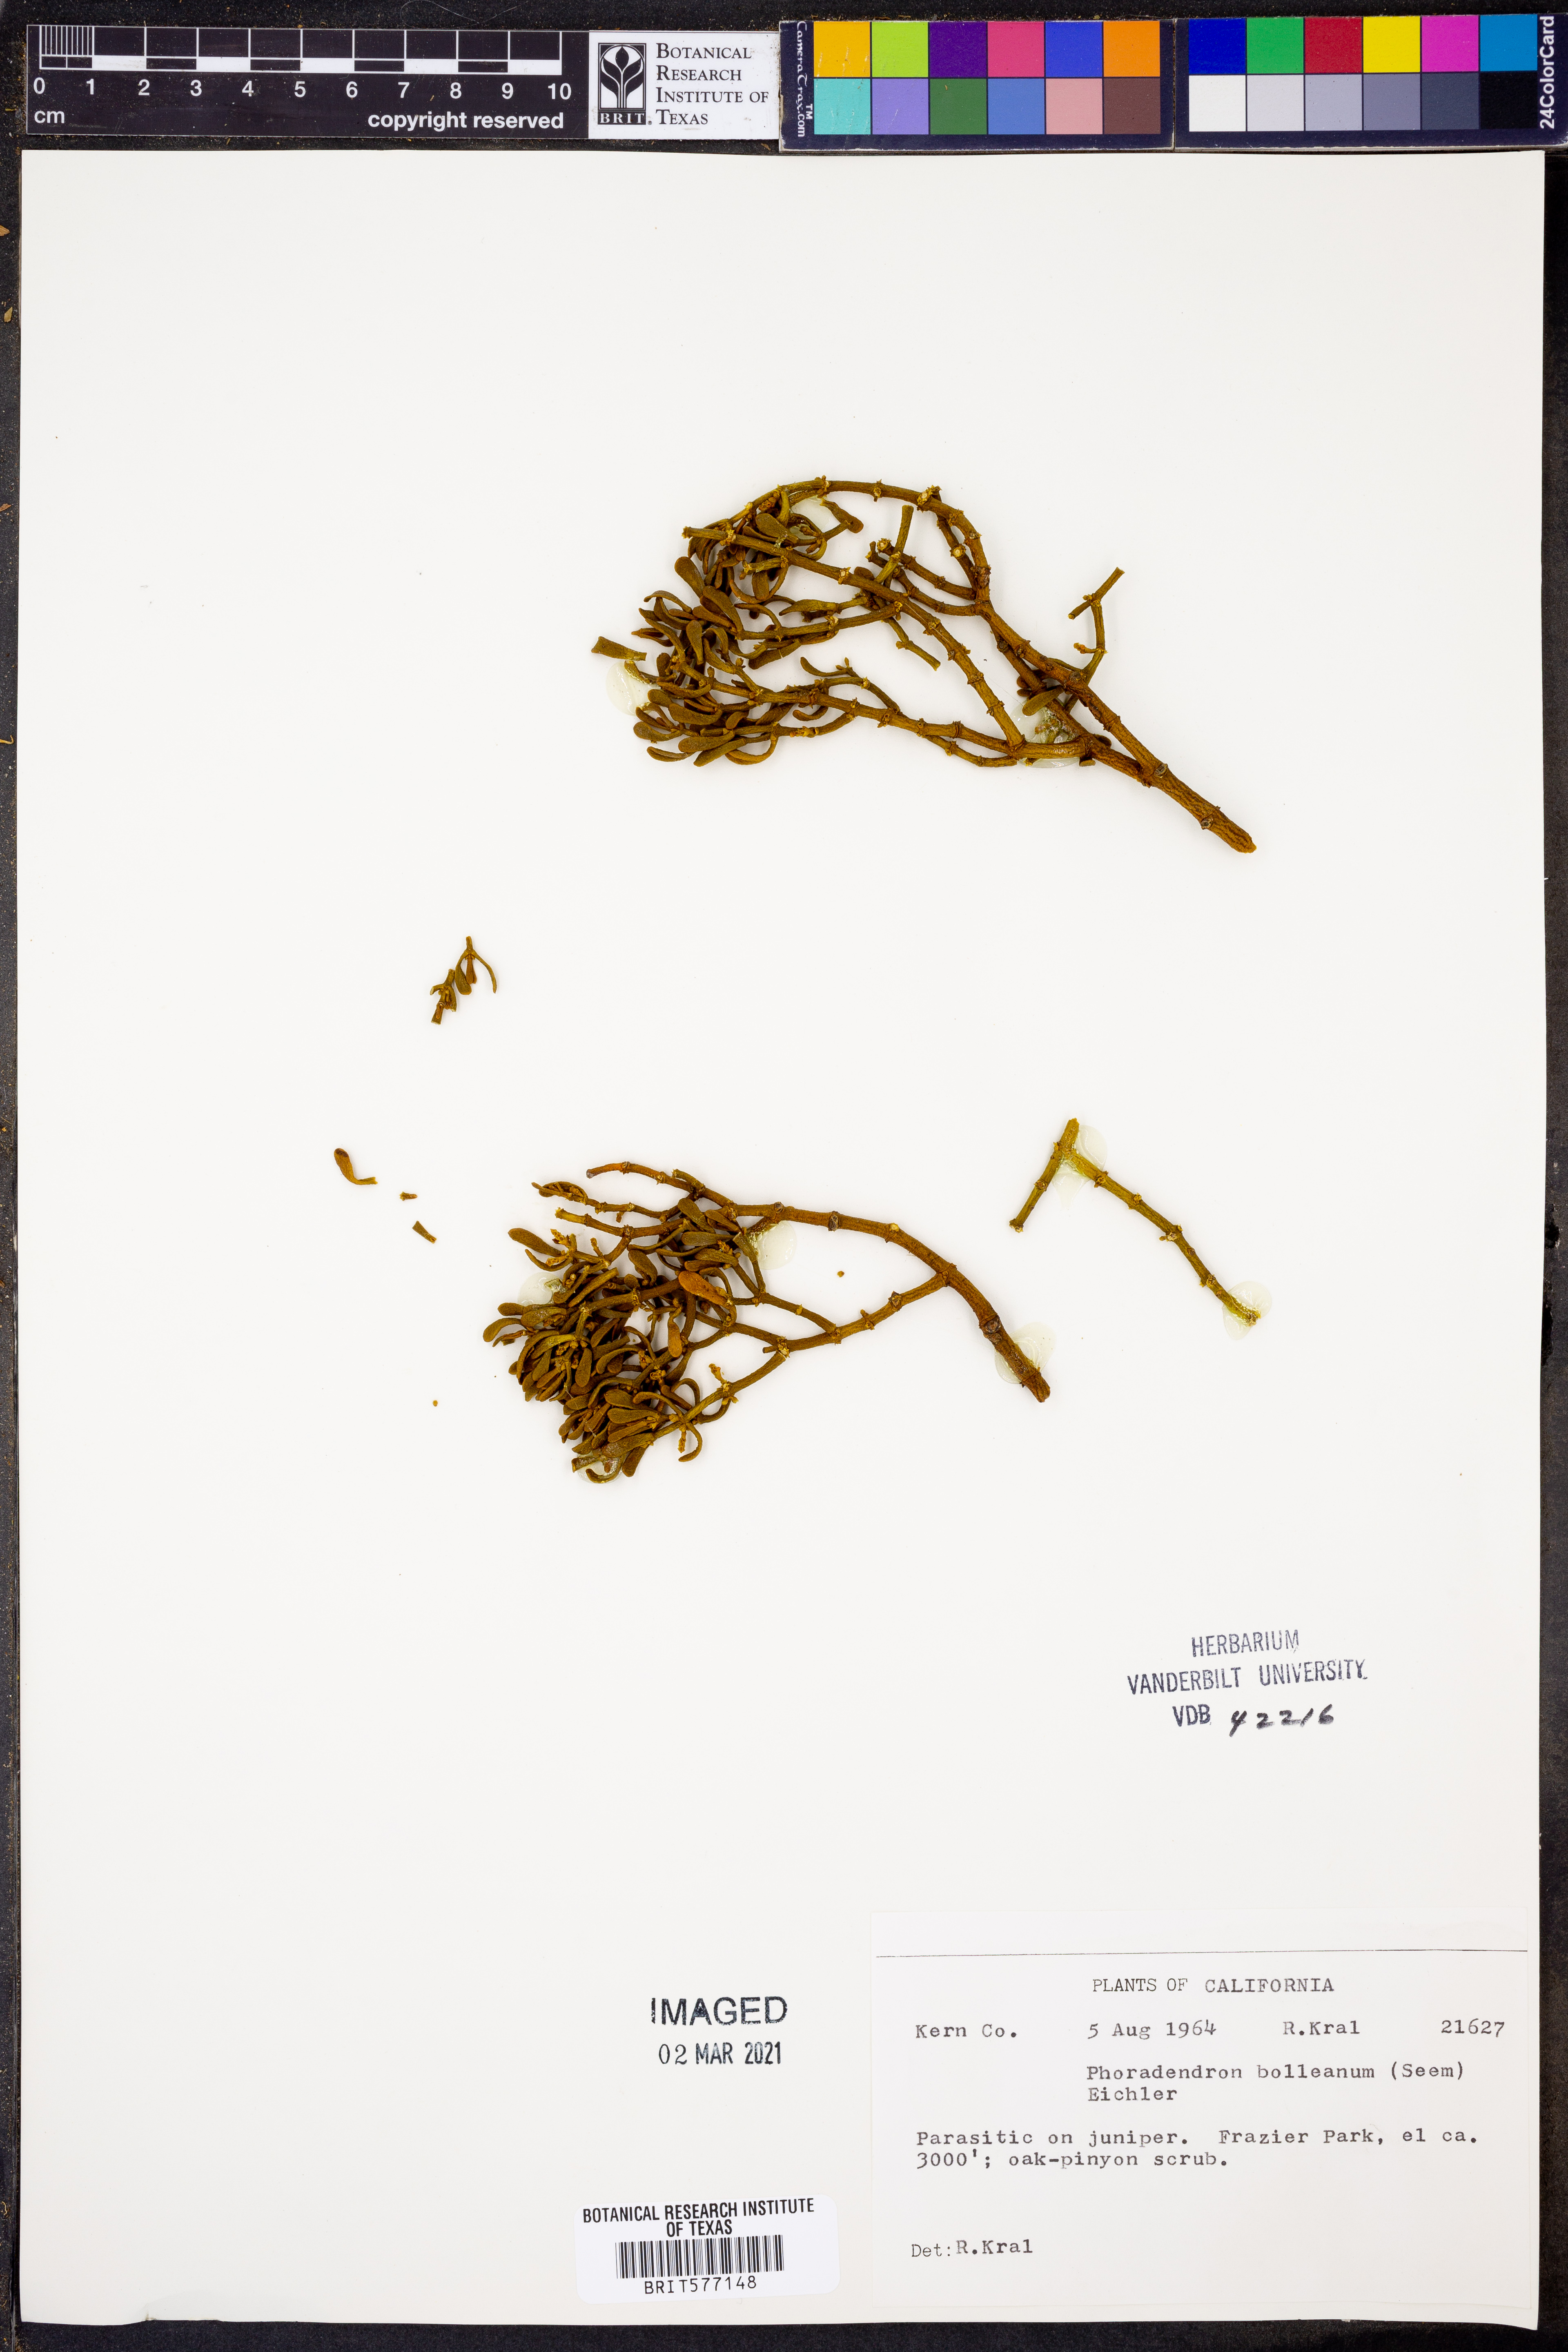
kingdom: Plantae
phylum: Tracheophyta
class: Magnoliopsida
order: Santalales
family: Viscaceae
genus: Phoradendron
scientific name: Phoradendron bolleanum
